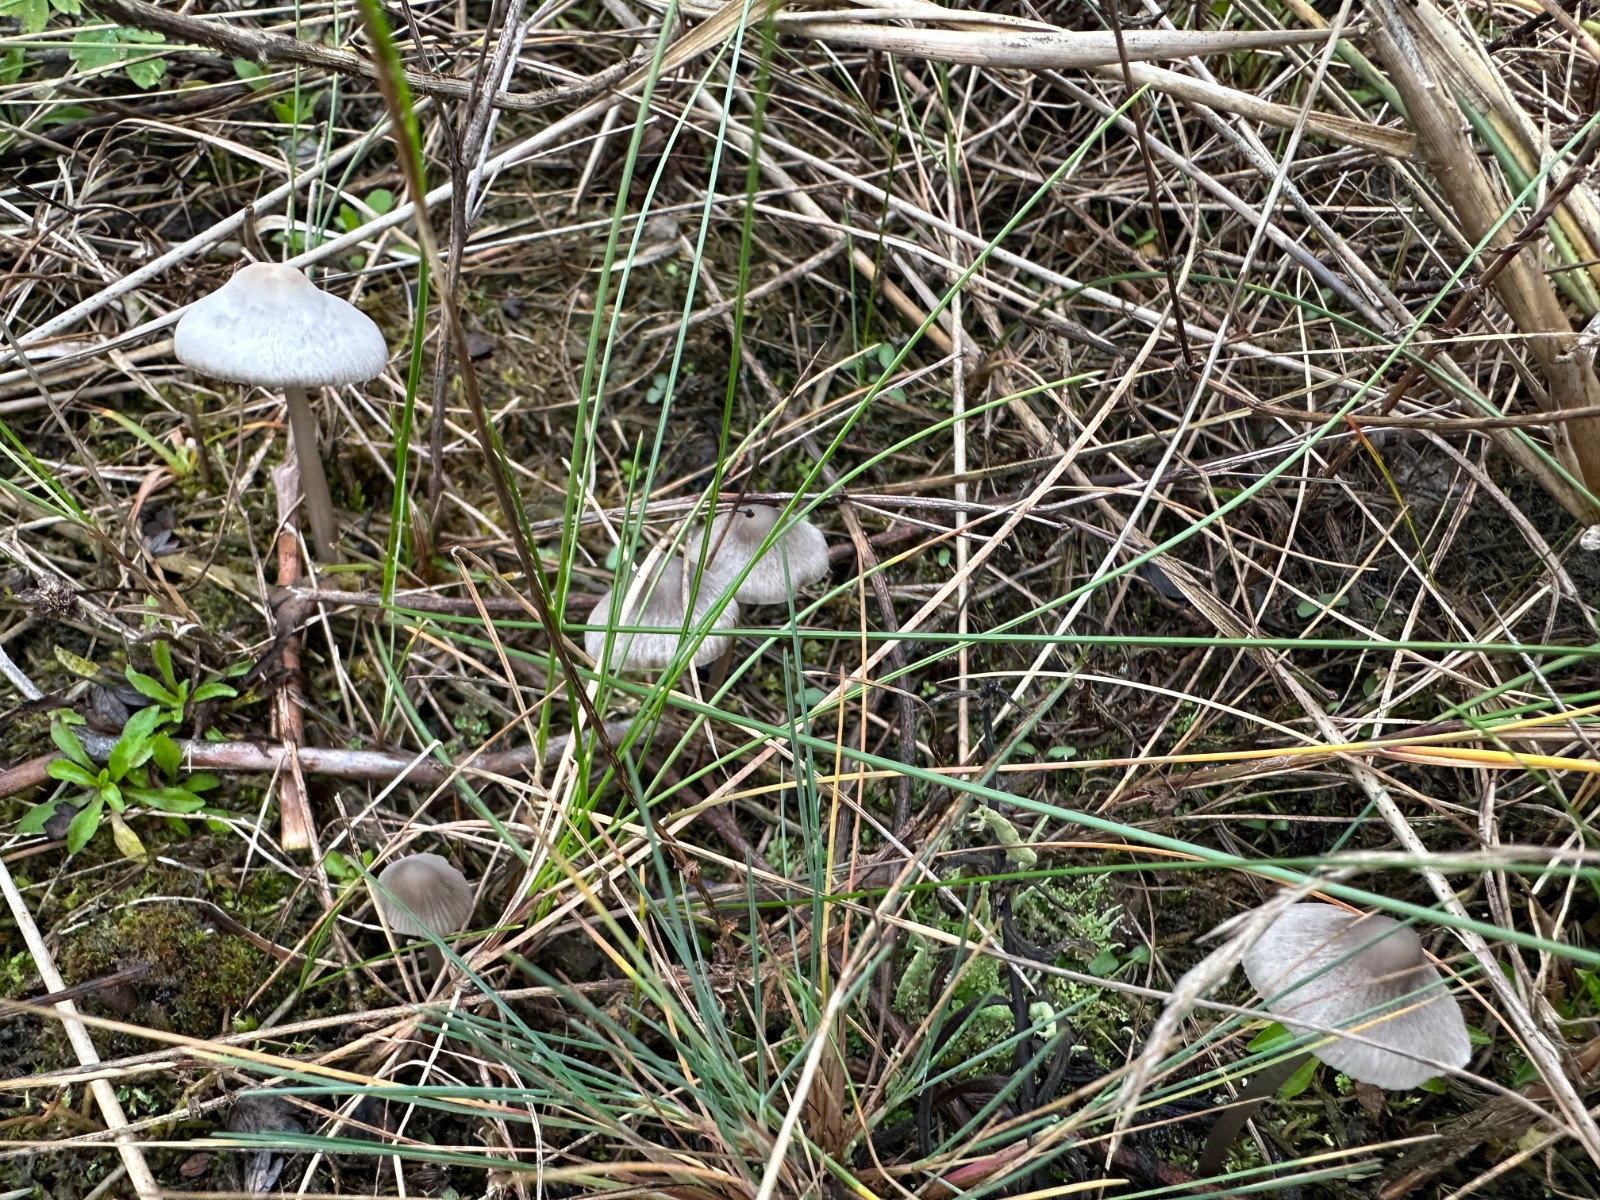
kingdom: Fungi
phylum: Basidiomycota
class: Agaricomycetes
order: Agaricales
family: Mycenaceae
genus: Mycena
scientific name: Mycena aetites
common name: plæne-huesvamp
